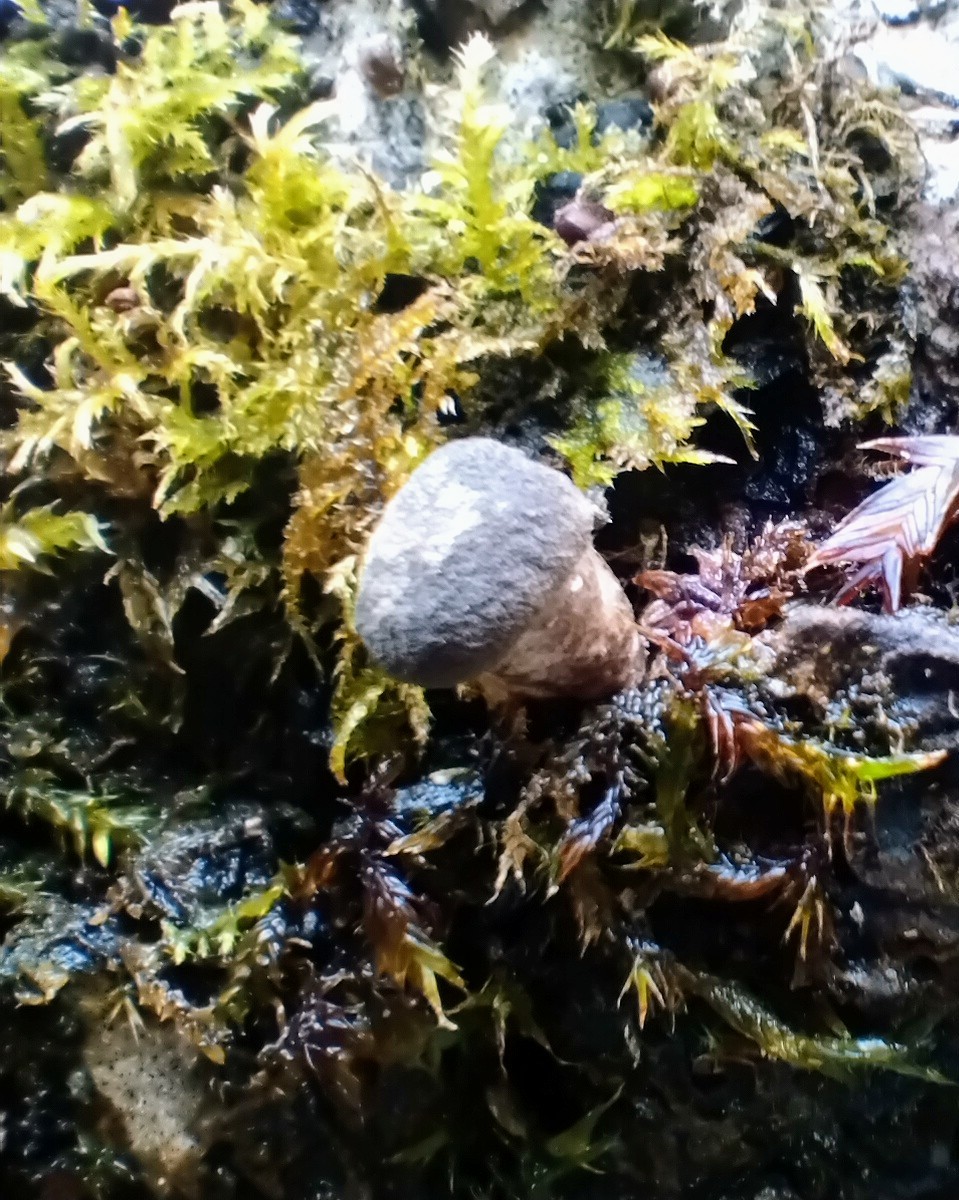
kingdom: Fungi
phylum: Basidiomycota
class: Agaricomycetes
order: Polyporales
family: Polyporaceae
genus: Lentinus
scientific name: Lentinus tigrinus
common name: tigerhat
